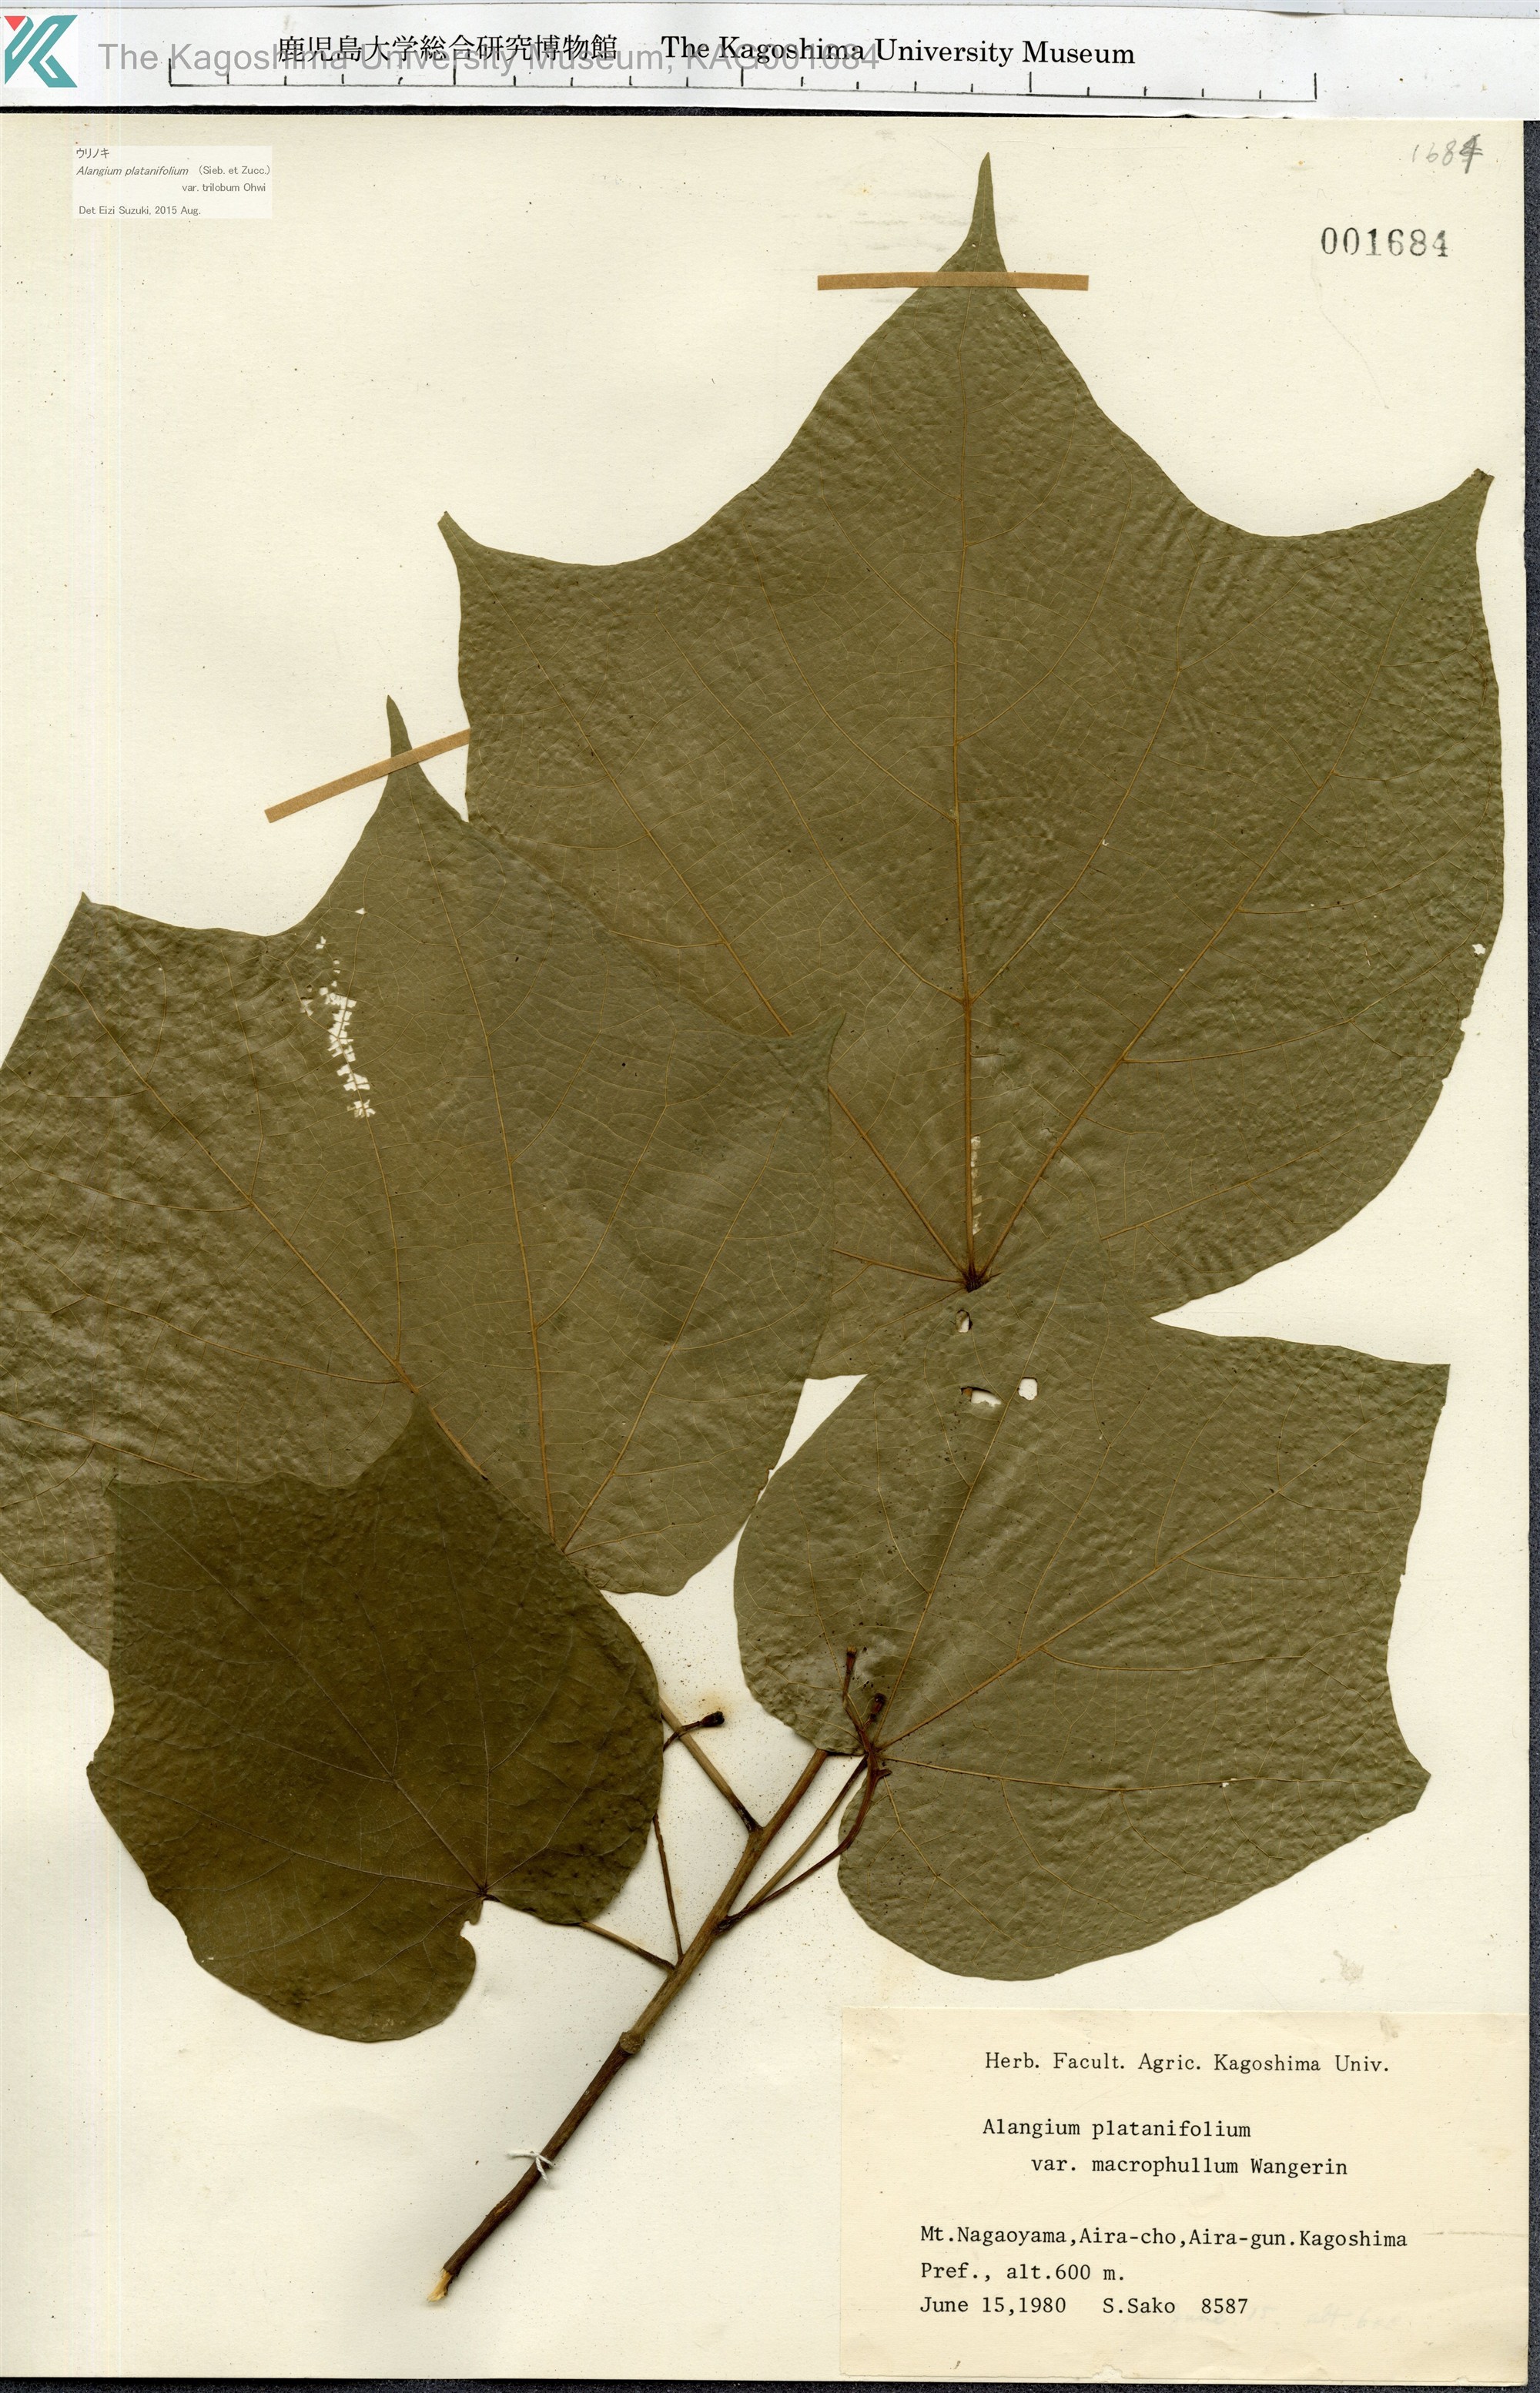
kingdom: Plantae
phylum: Tracheophyta
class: Magnoliopsida
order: Cornales
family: Cornaceae
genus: Alangium
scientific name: Alangium platanifolium
